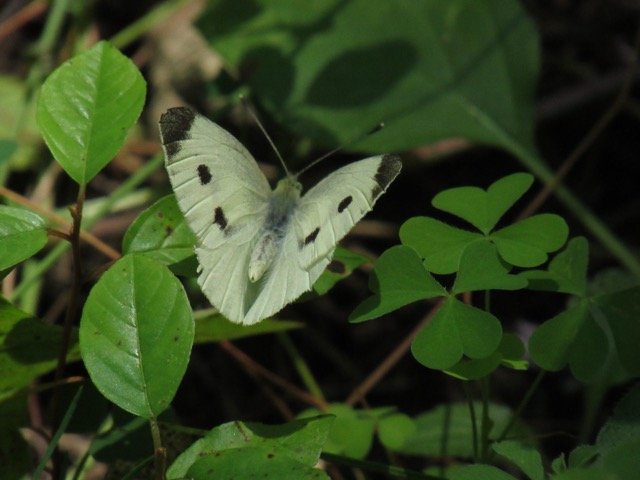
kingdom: Animalia
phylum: Arthropoda
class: Insecta
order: Lepidoptera
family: Pieridae
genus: Pieris
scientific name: Pieris rapae
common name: Cabbage White
